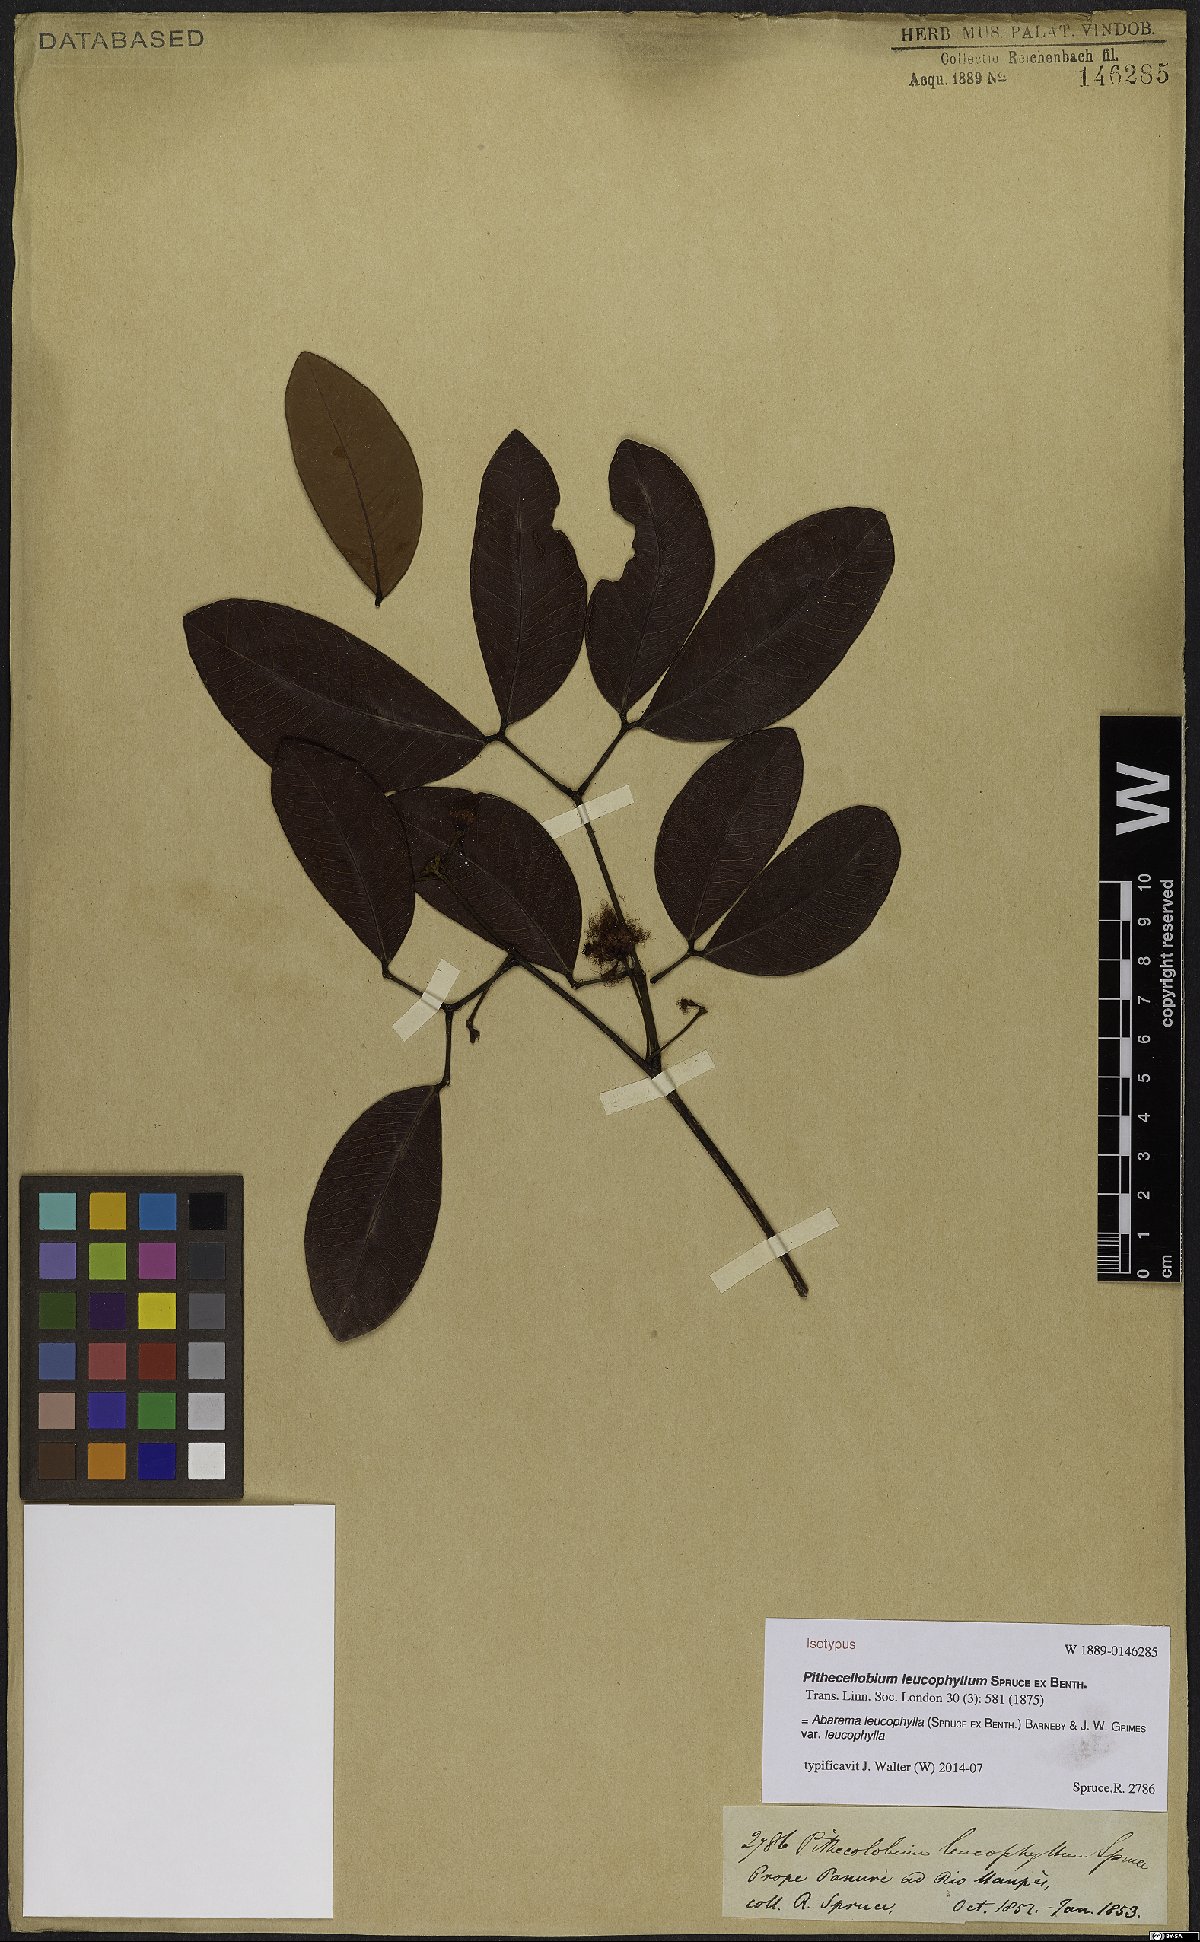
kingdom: Plantae
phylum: Tracheophyta
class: Magnoliopsida
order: Fabales
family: Fabaceae
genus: Jupunba
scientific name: Jupunba leucophylla
